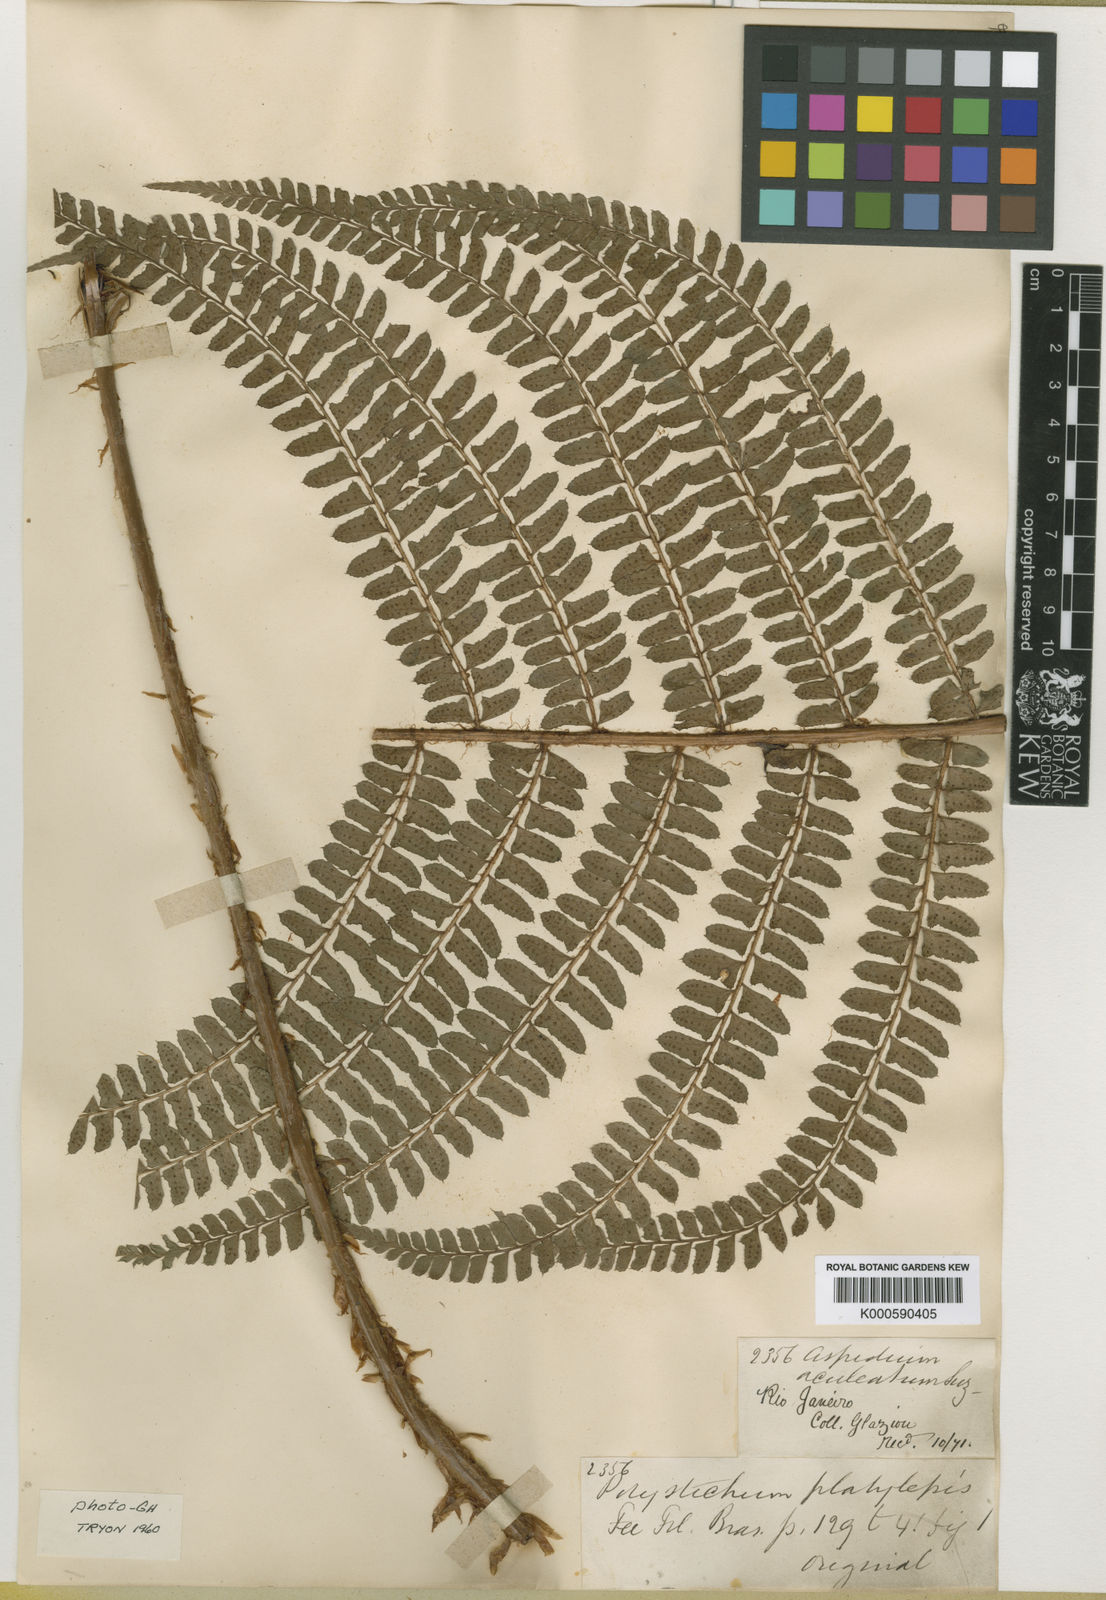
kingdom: Plantae
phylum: Tracheophyta
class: Polypodiopsida
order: Polypodiales
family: Dryopteridaceae
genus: Polystichum
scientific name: Polystichum
